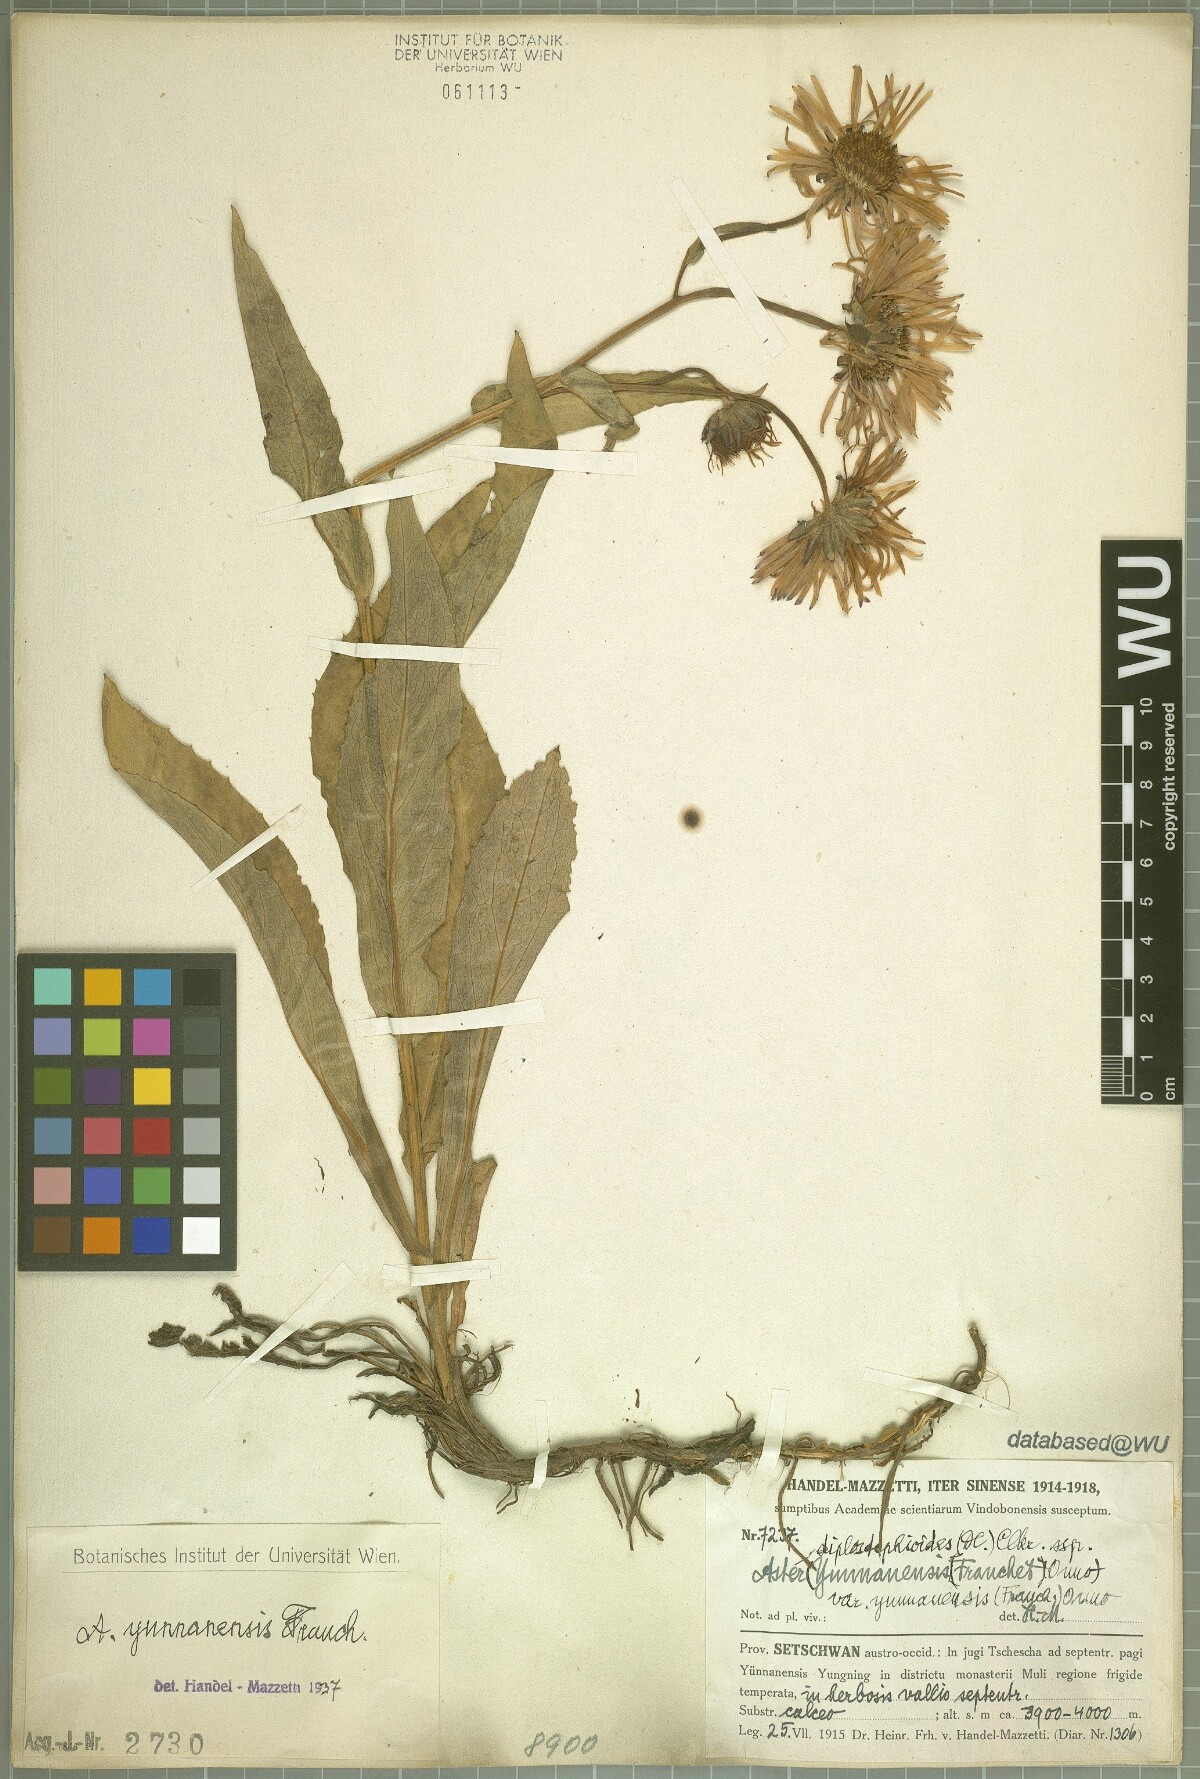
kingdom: Plantae
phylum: Tracheophyta
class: Magnoliopsida
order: Asterales
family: Asteraceae
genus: Tibetiodes
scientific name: Tibetiodes yunnanensis
